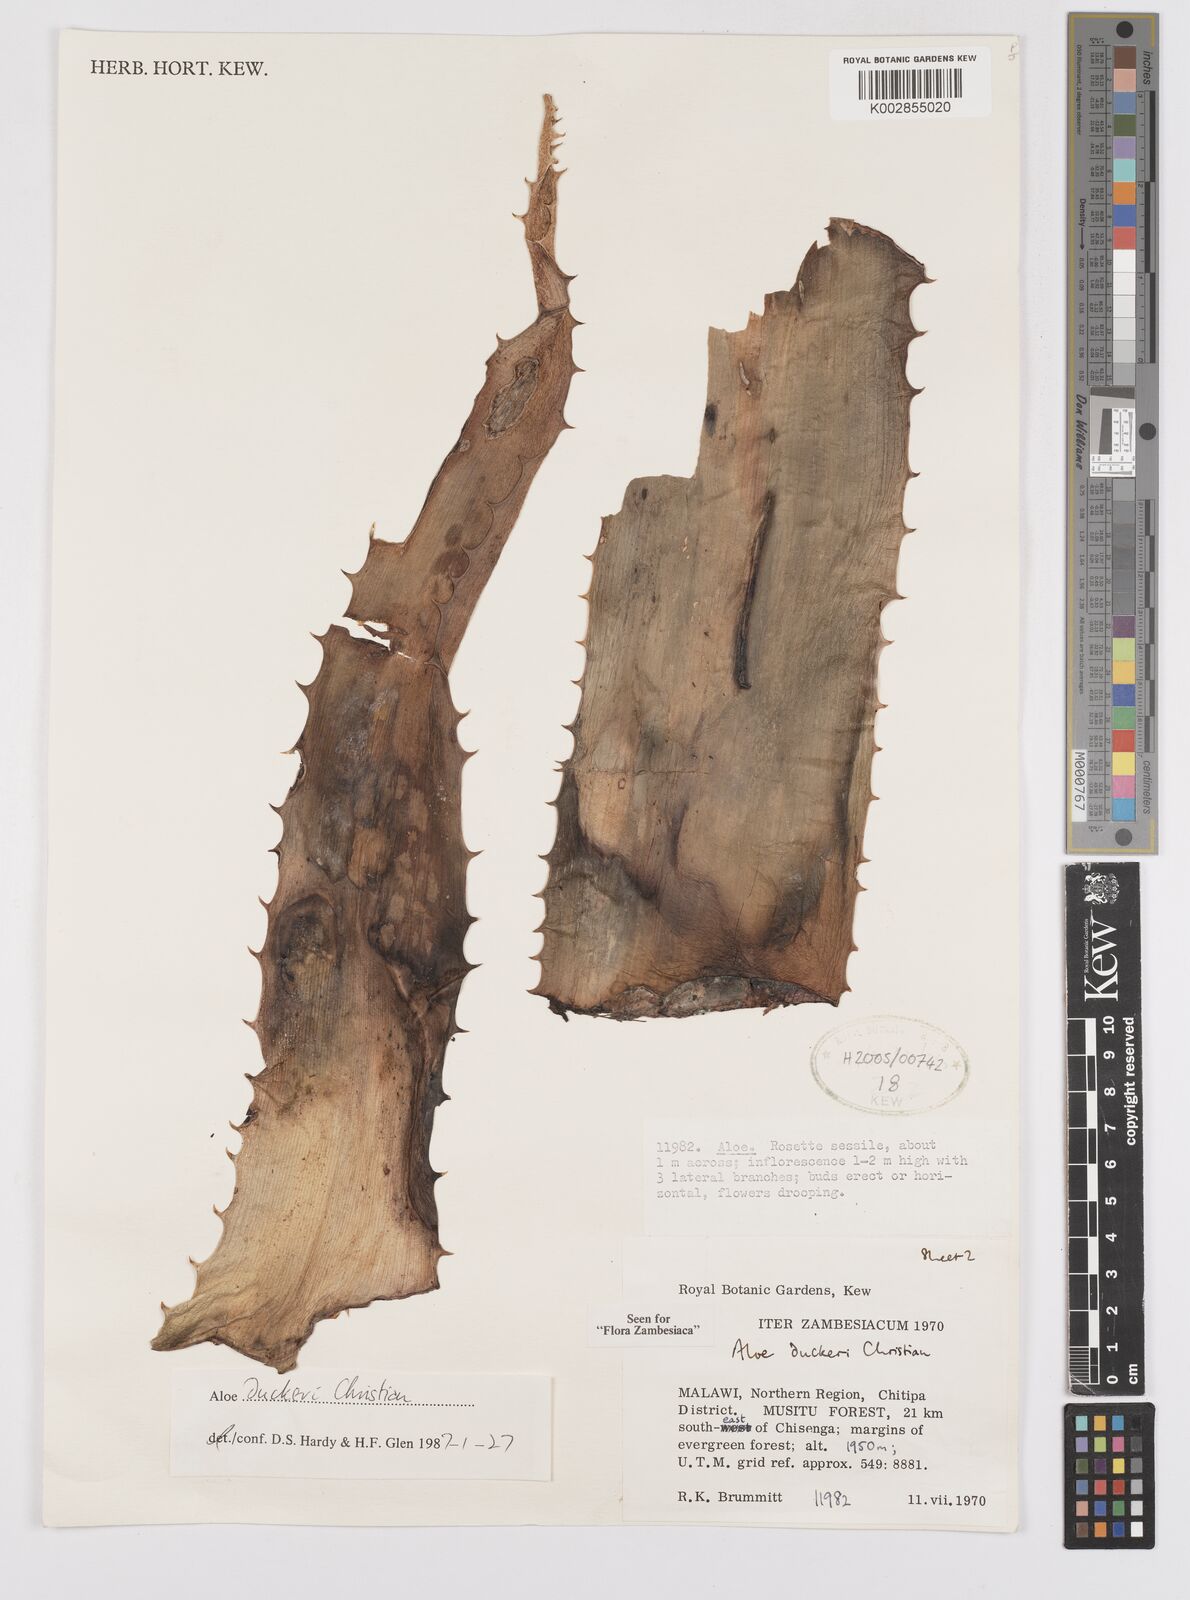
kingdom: Plantae
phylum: Tracheophyta
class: Liliopsida
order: Asparagales
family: Asphodelaceae
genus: Aloe
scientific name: Aloe duckeri
